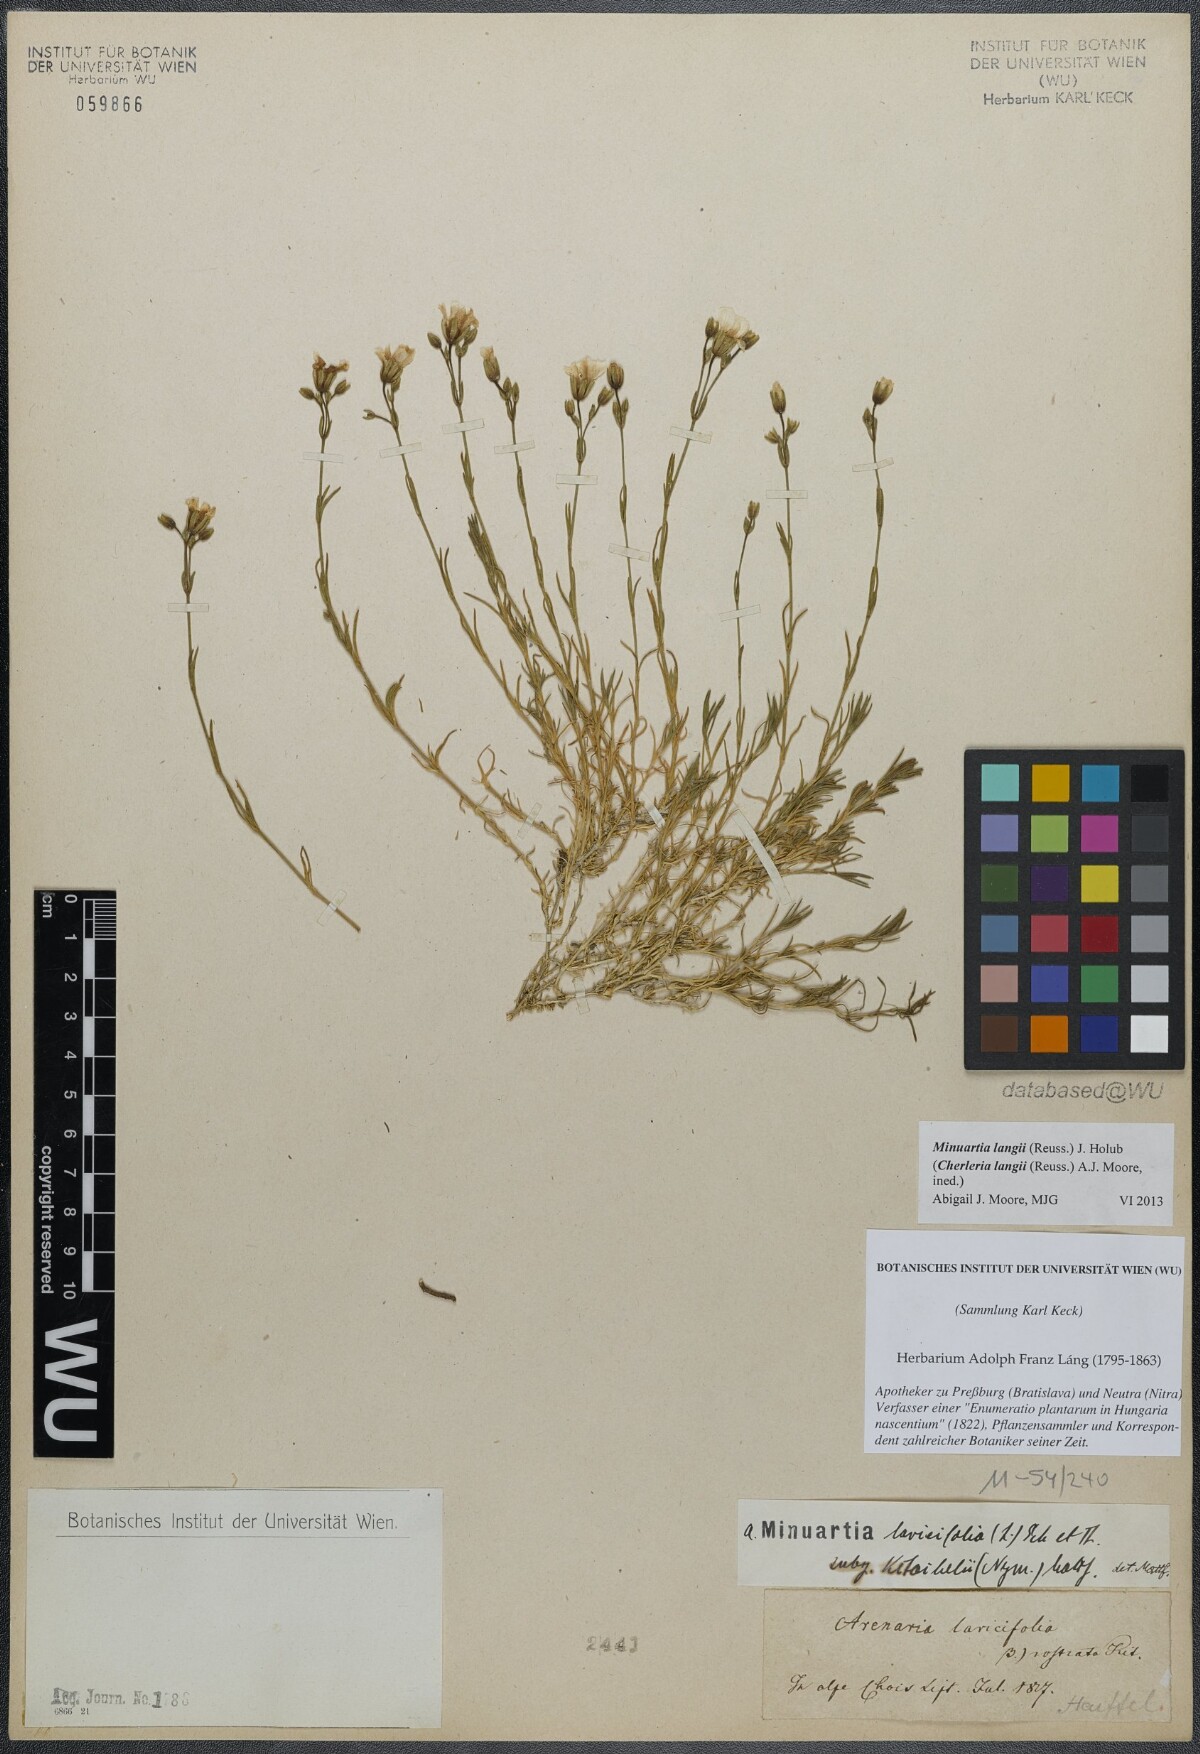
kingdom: Plantae
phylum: Tracheophyta
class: Magnoliopsida
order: Caryophyllales
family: Caryophyllaceae
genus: Cherleria
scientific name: Cherleria langii
